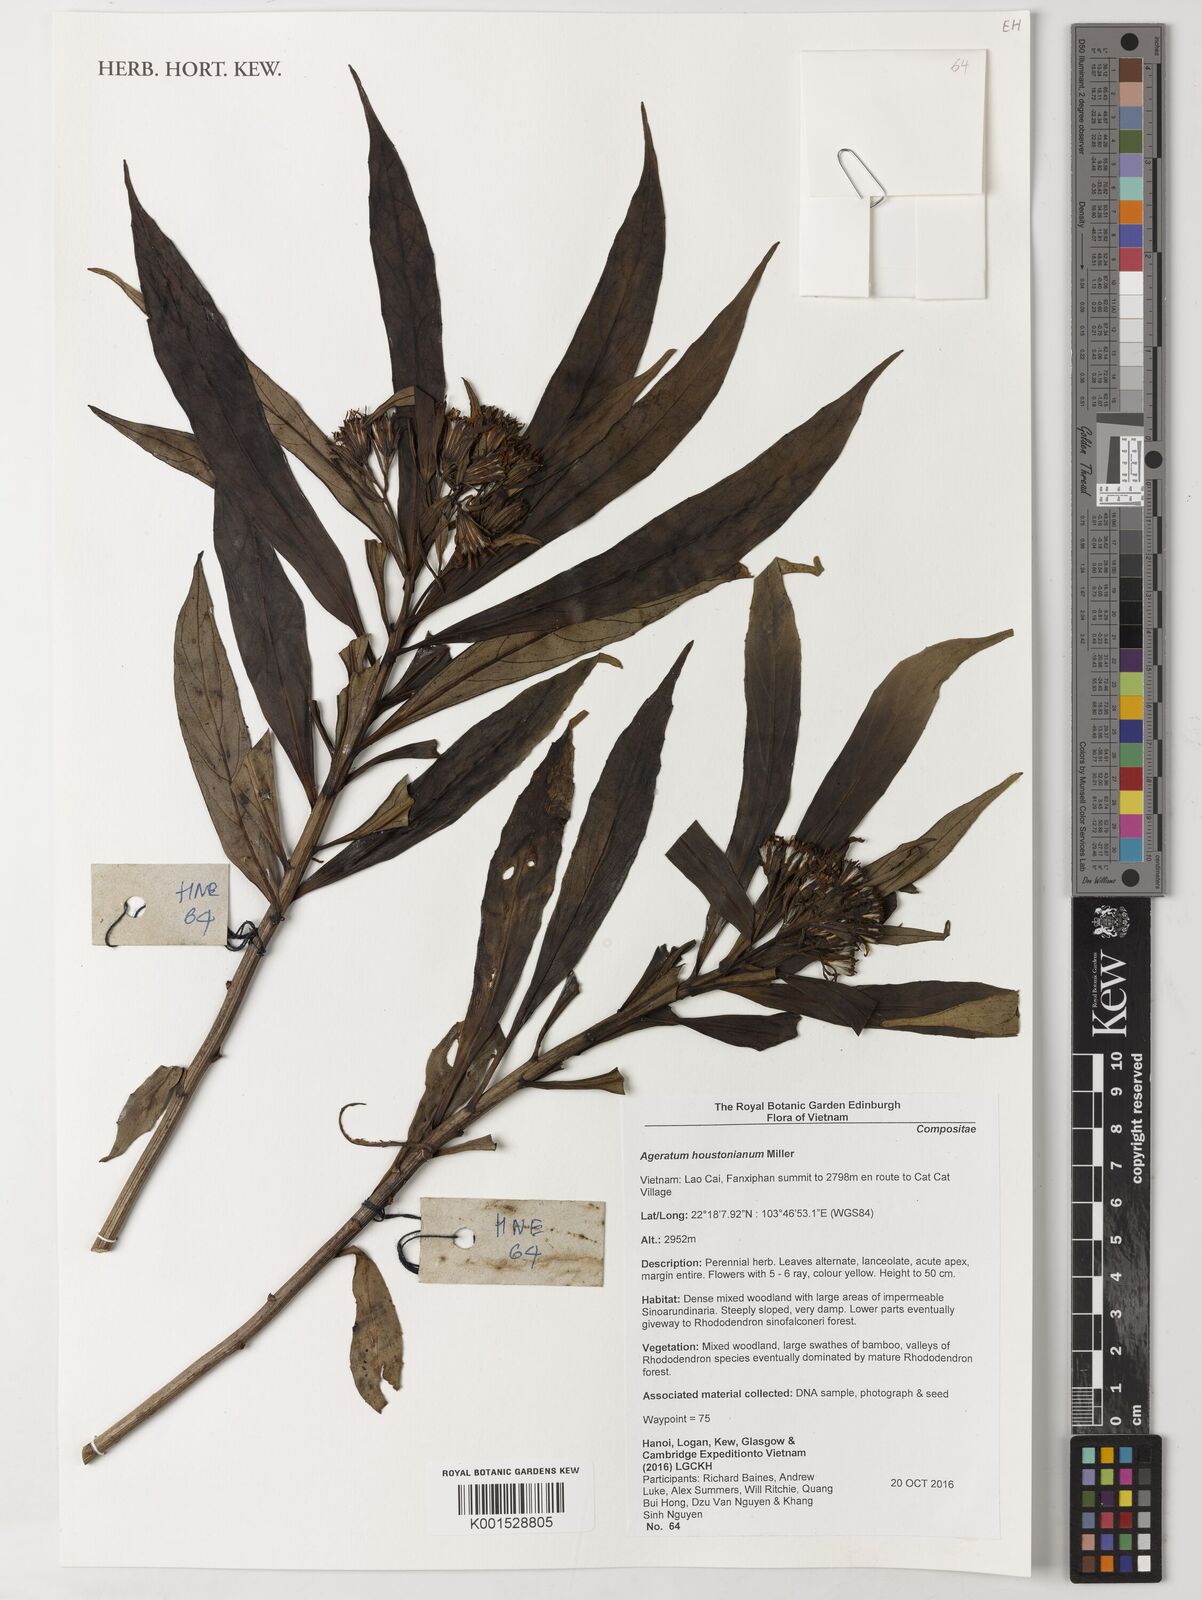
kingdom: Plantae
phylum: Tracheophyta
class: Magnoliopsida
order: Asterales
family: Asteraceae
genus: Ageratum
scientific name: Ageratum houstonianum
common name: Bluemink
